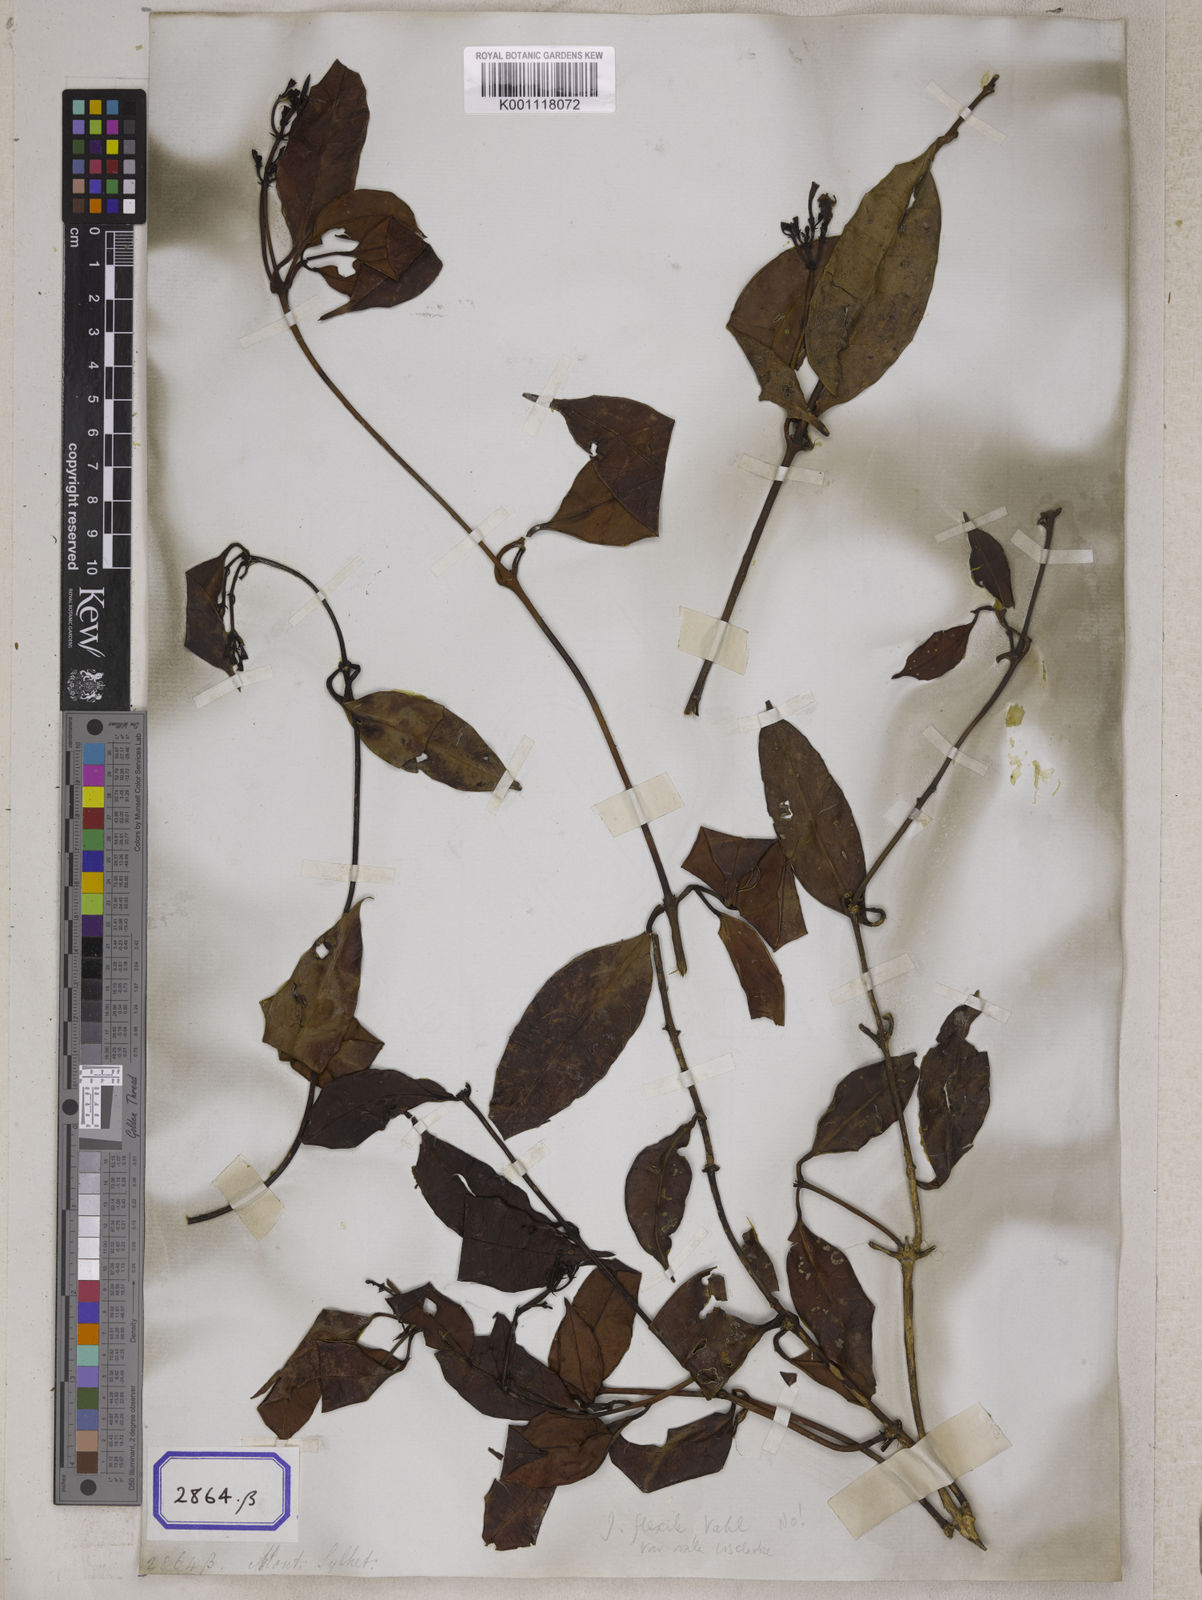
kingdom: Plantae
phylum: Tracheophyta
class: Magnoliopsida
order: Lamiales
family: Oleaceae
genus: Jasminum
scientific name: Jasminum
